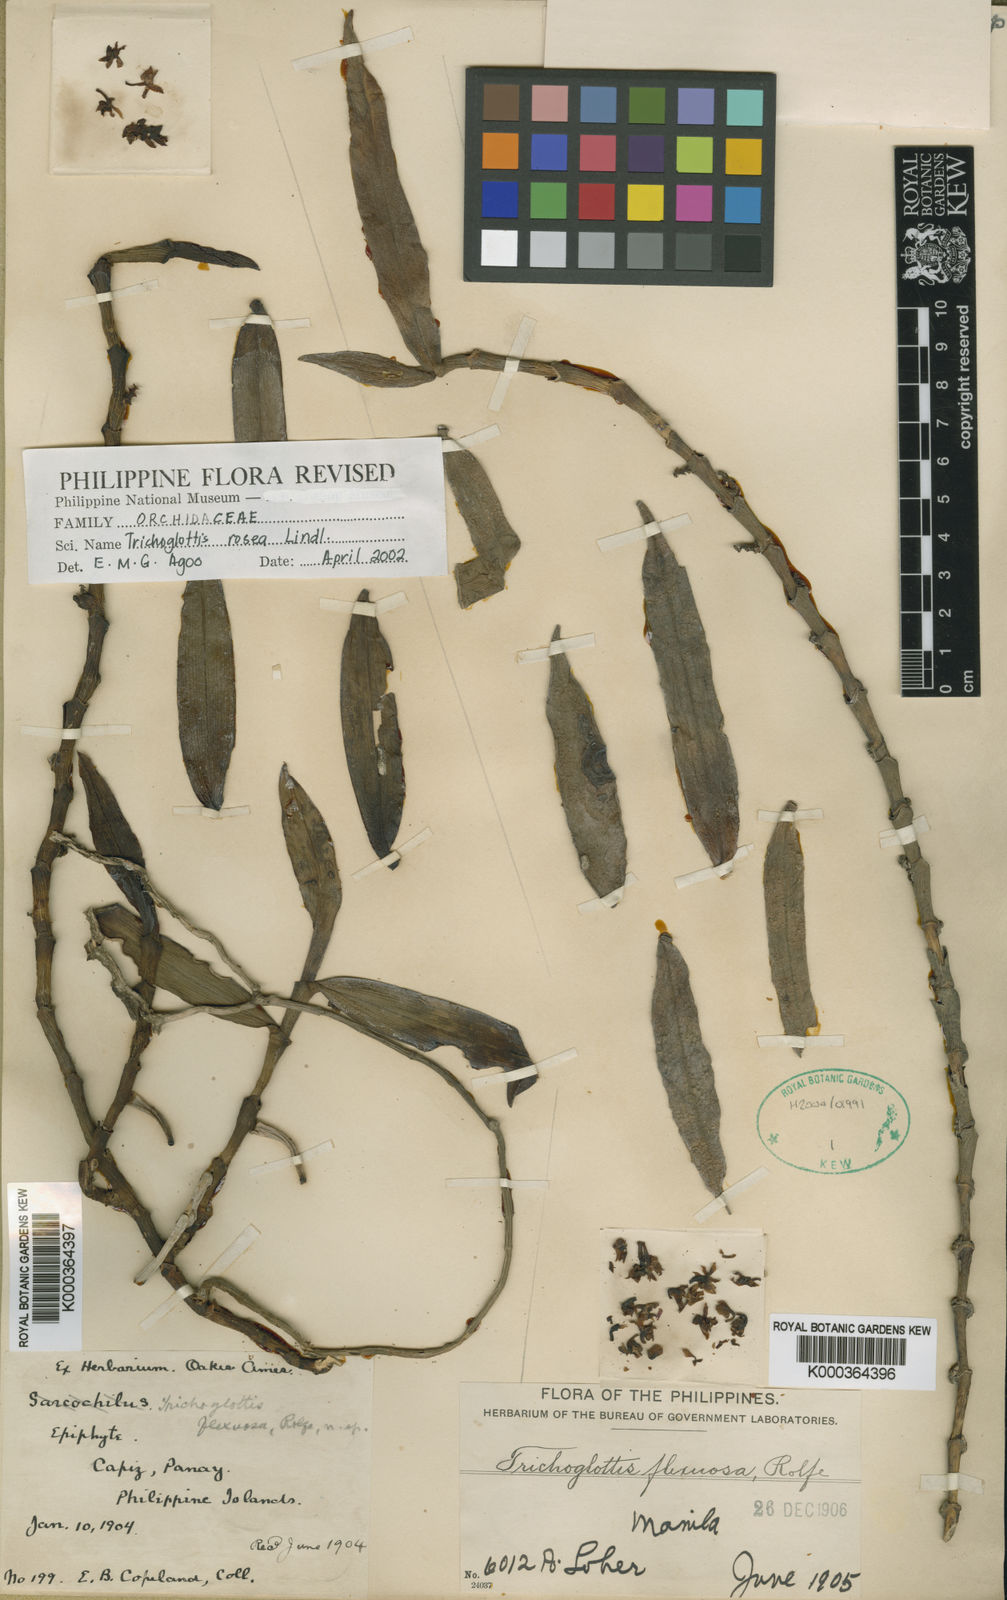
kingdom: Plantae
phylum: Tracheophyta
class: Liliopsida
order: Asparagales
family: Orchidaceae
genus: Trichoglottis
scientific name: Trichoglottis rosea
